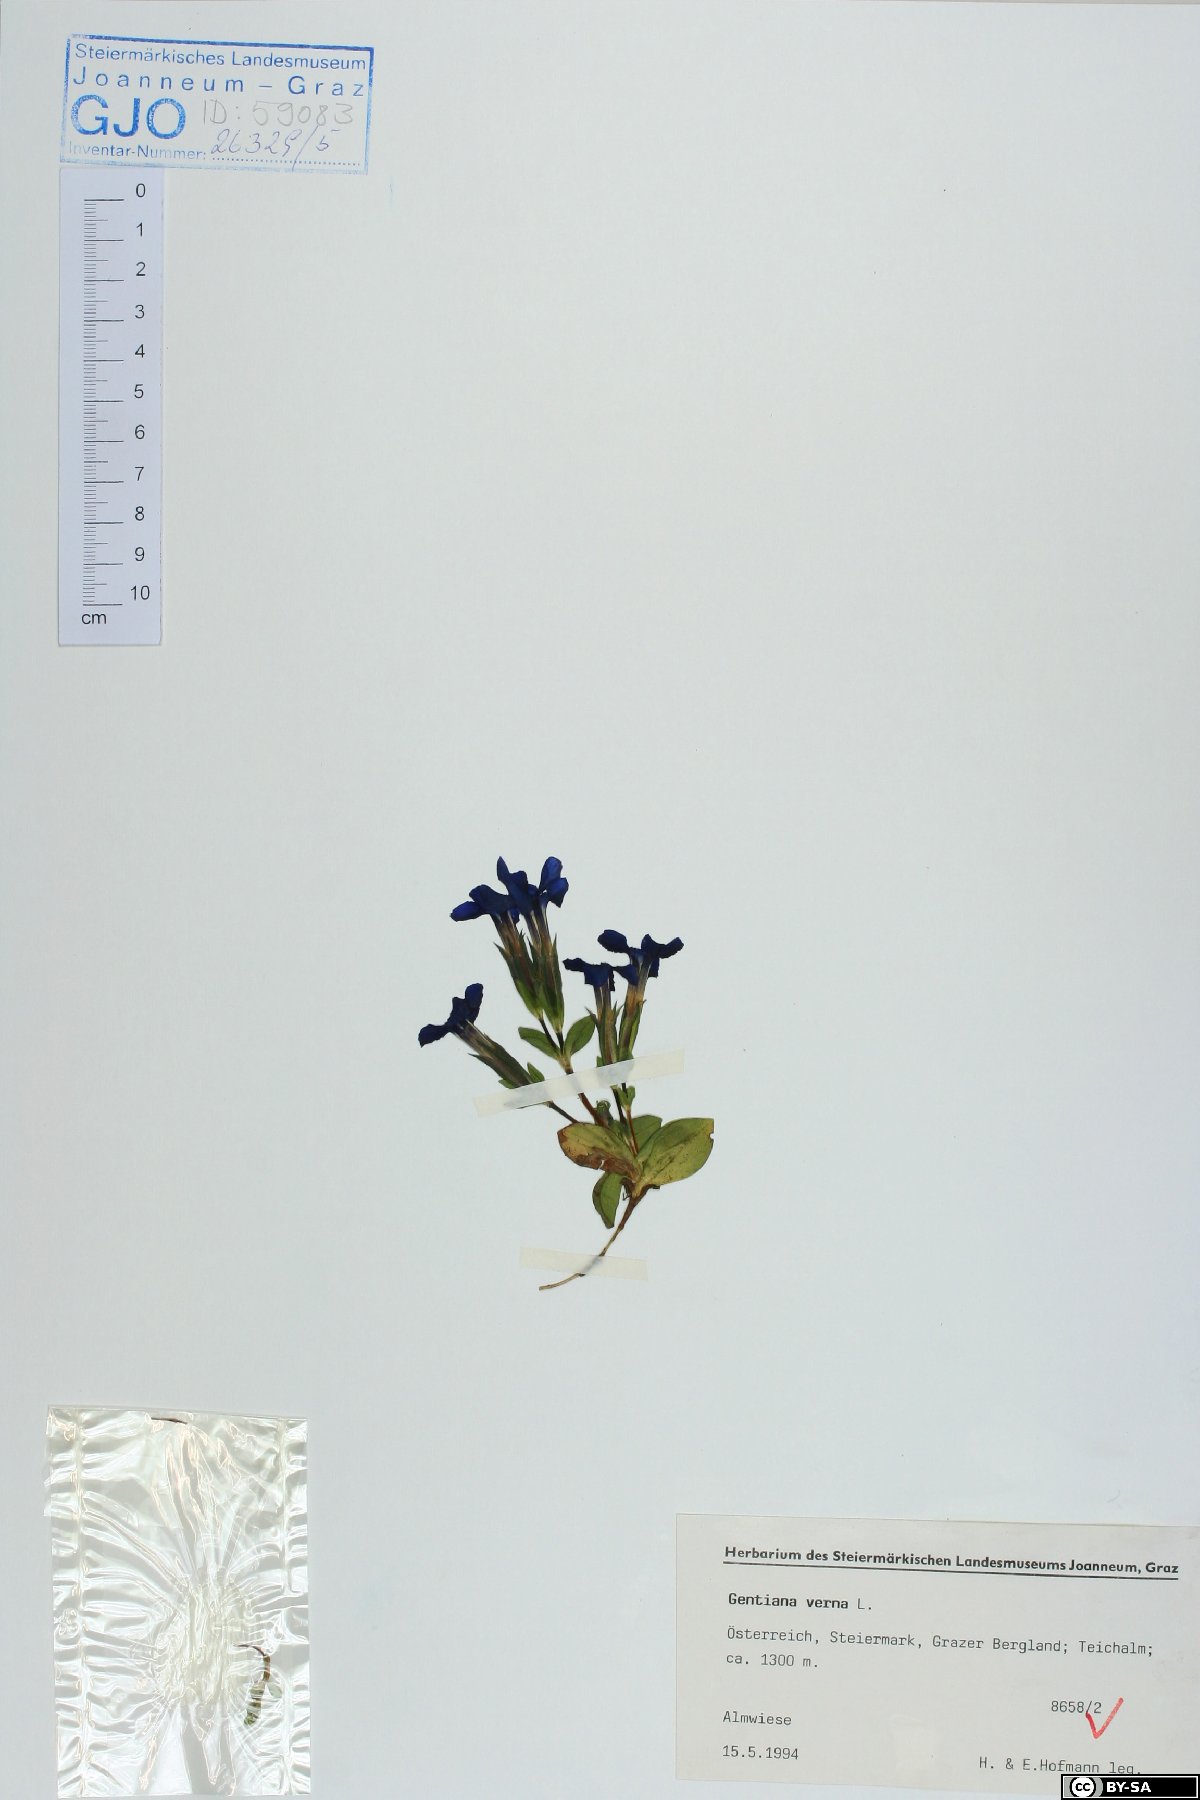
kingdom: Plantae
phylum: Tracheophyta
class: Magnoliopsida
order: Gentianales
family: Gentianaceae
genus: Gentiana
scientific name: Gentiana verna
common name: Spring gentian
